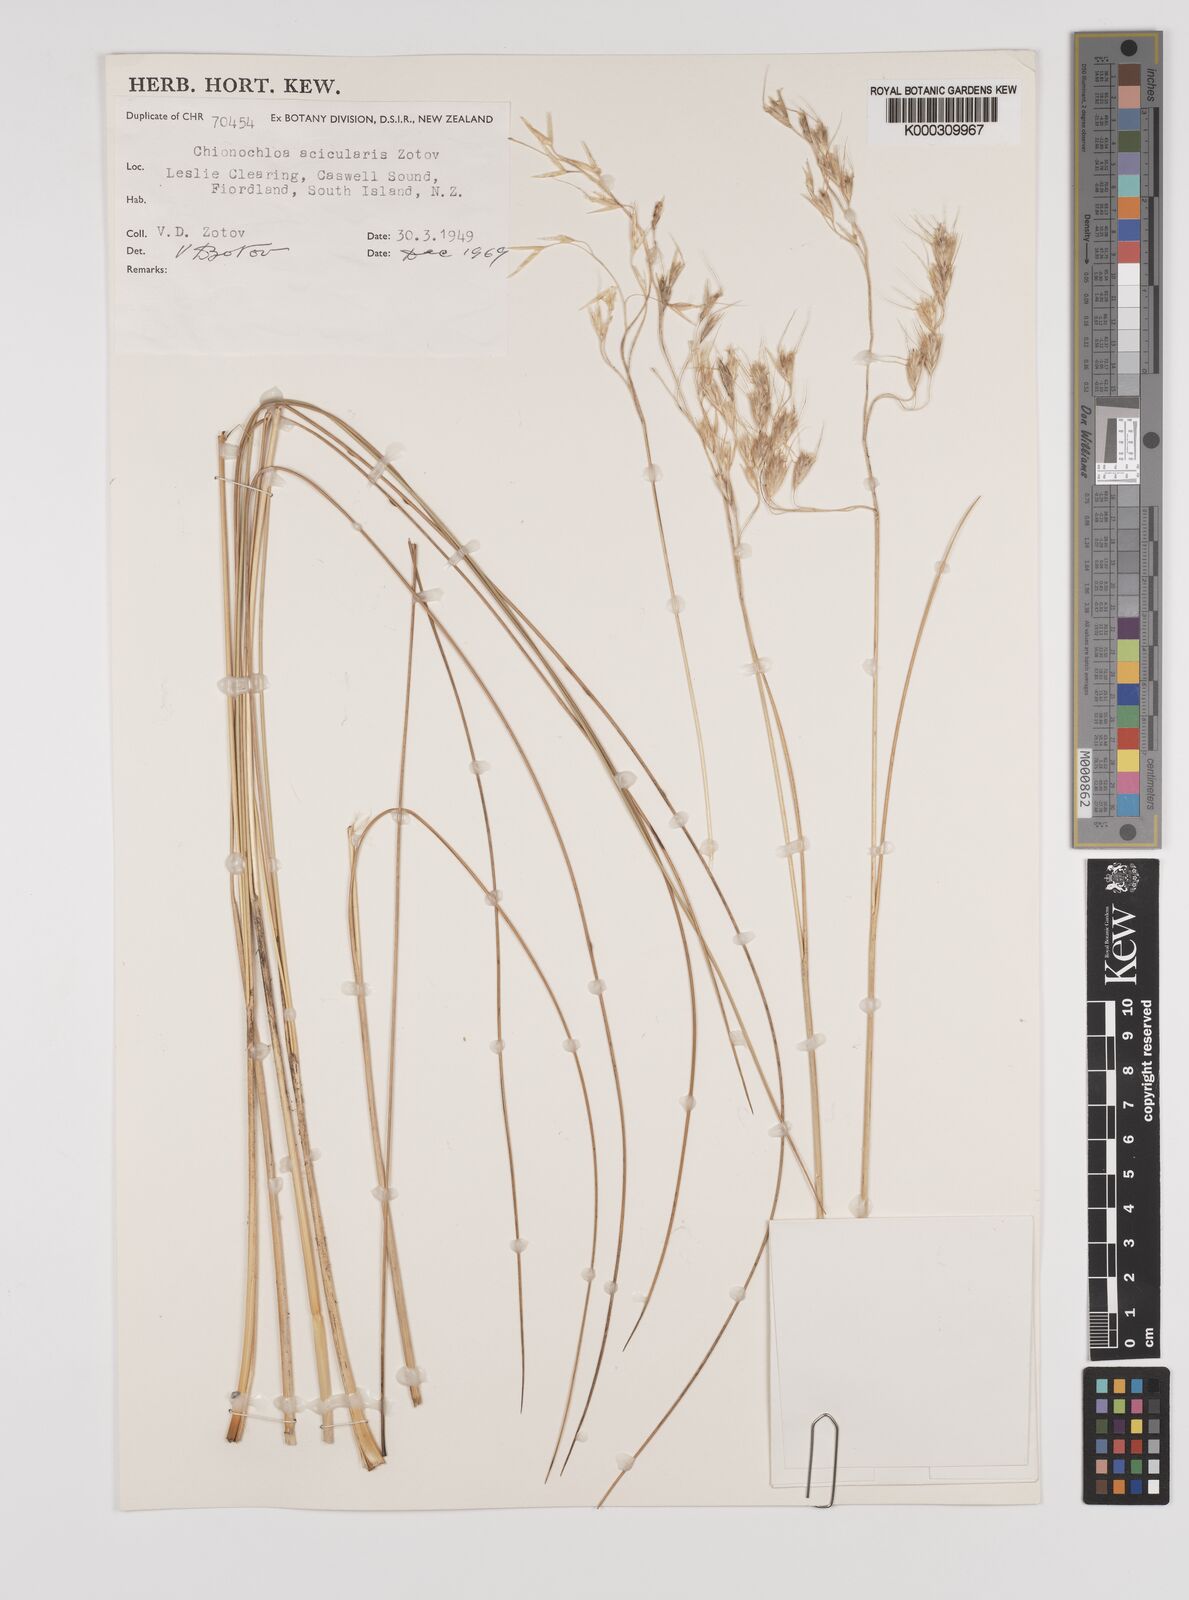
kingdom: Plantae
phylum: Tracheophyta
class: Liliopsida
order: Poales
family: Poaceae
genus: Chionochloa
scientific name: Chionochloa acicularis
